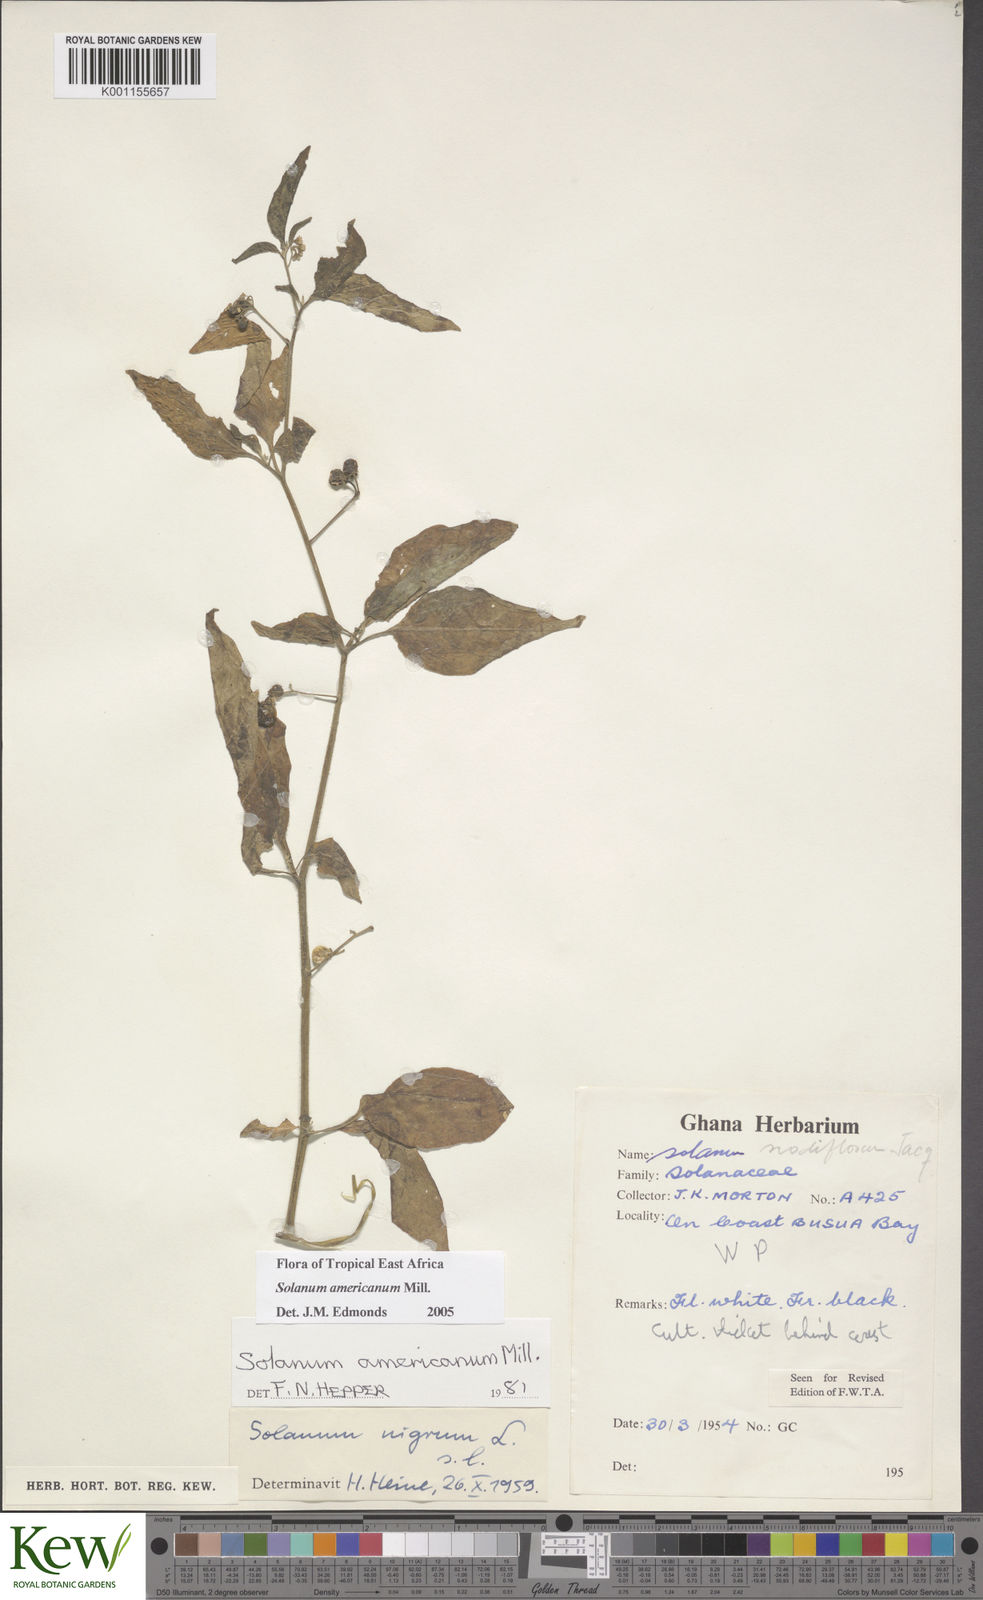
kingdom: Plantae
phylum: Tracheophyta
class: Magnoliopsida
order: Solanales
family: Solanaceae
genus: Solanum
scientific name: Solanum americanum
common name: American black nightshade
